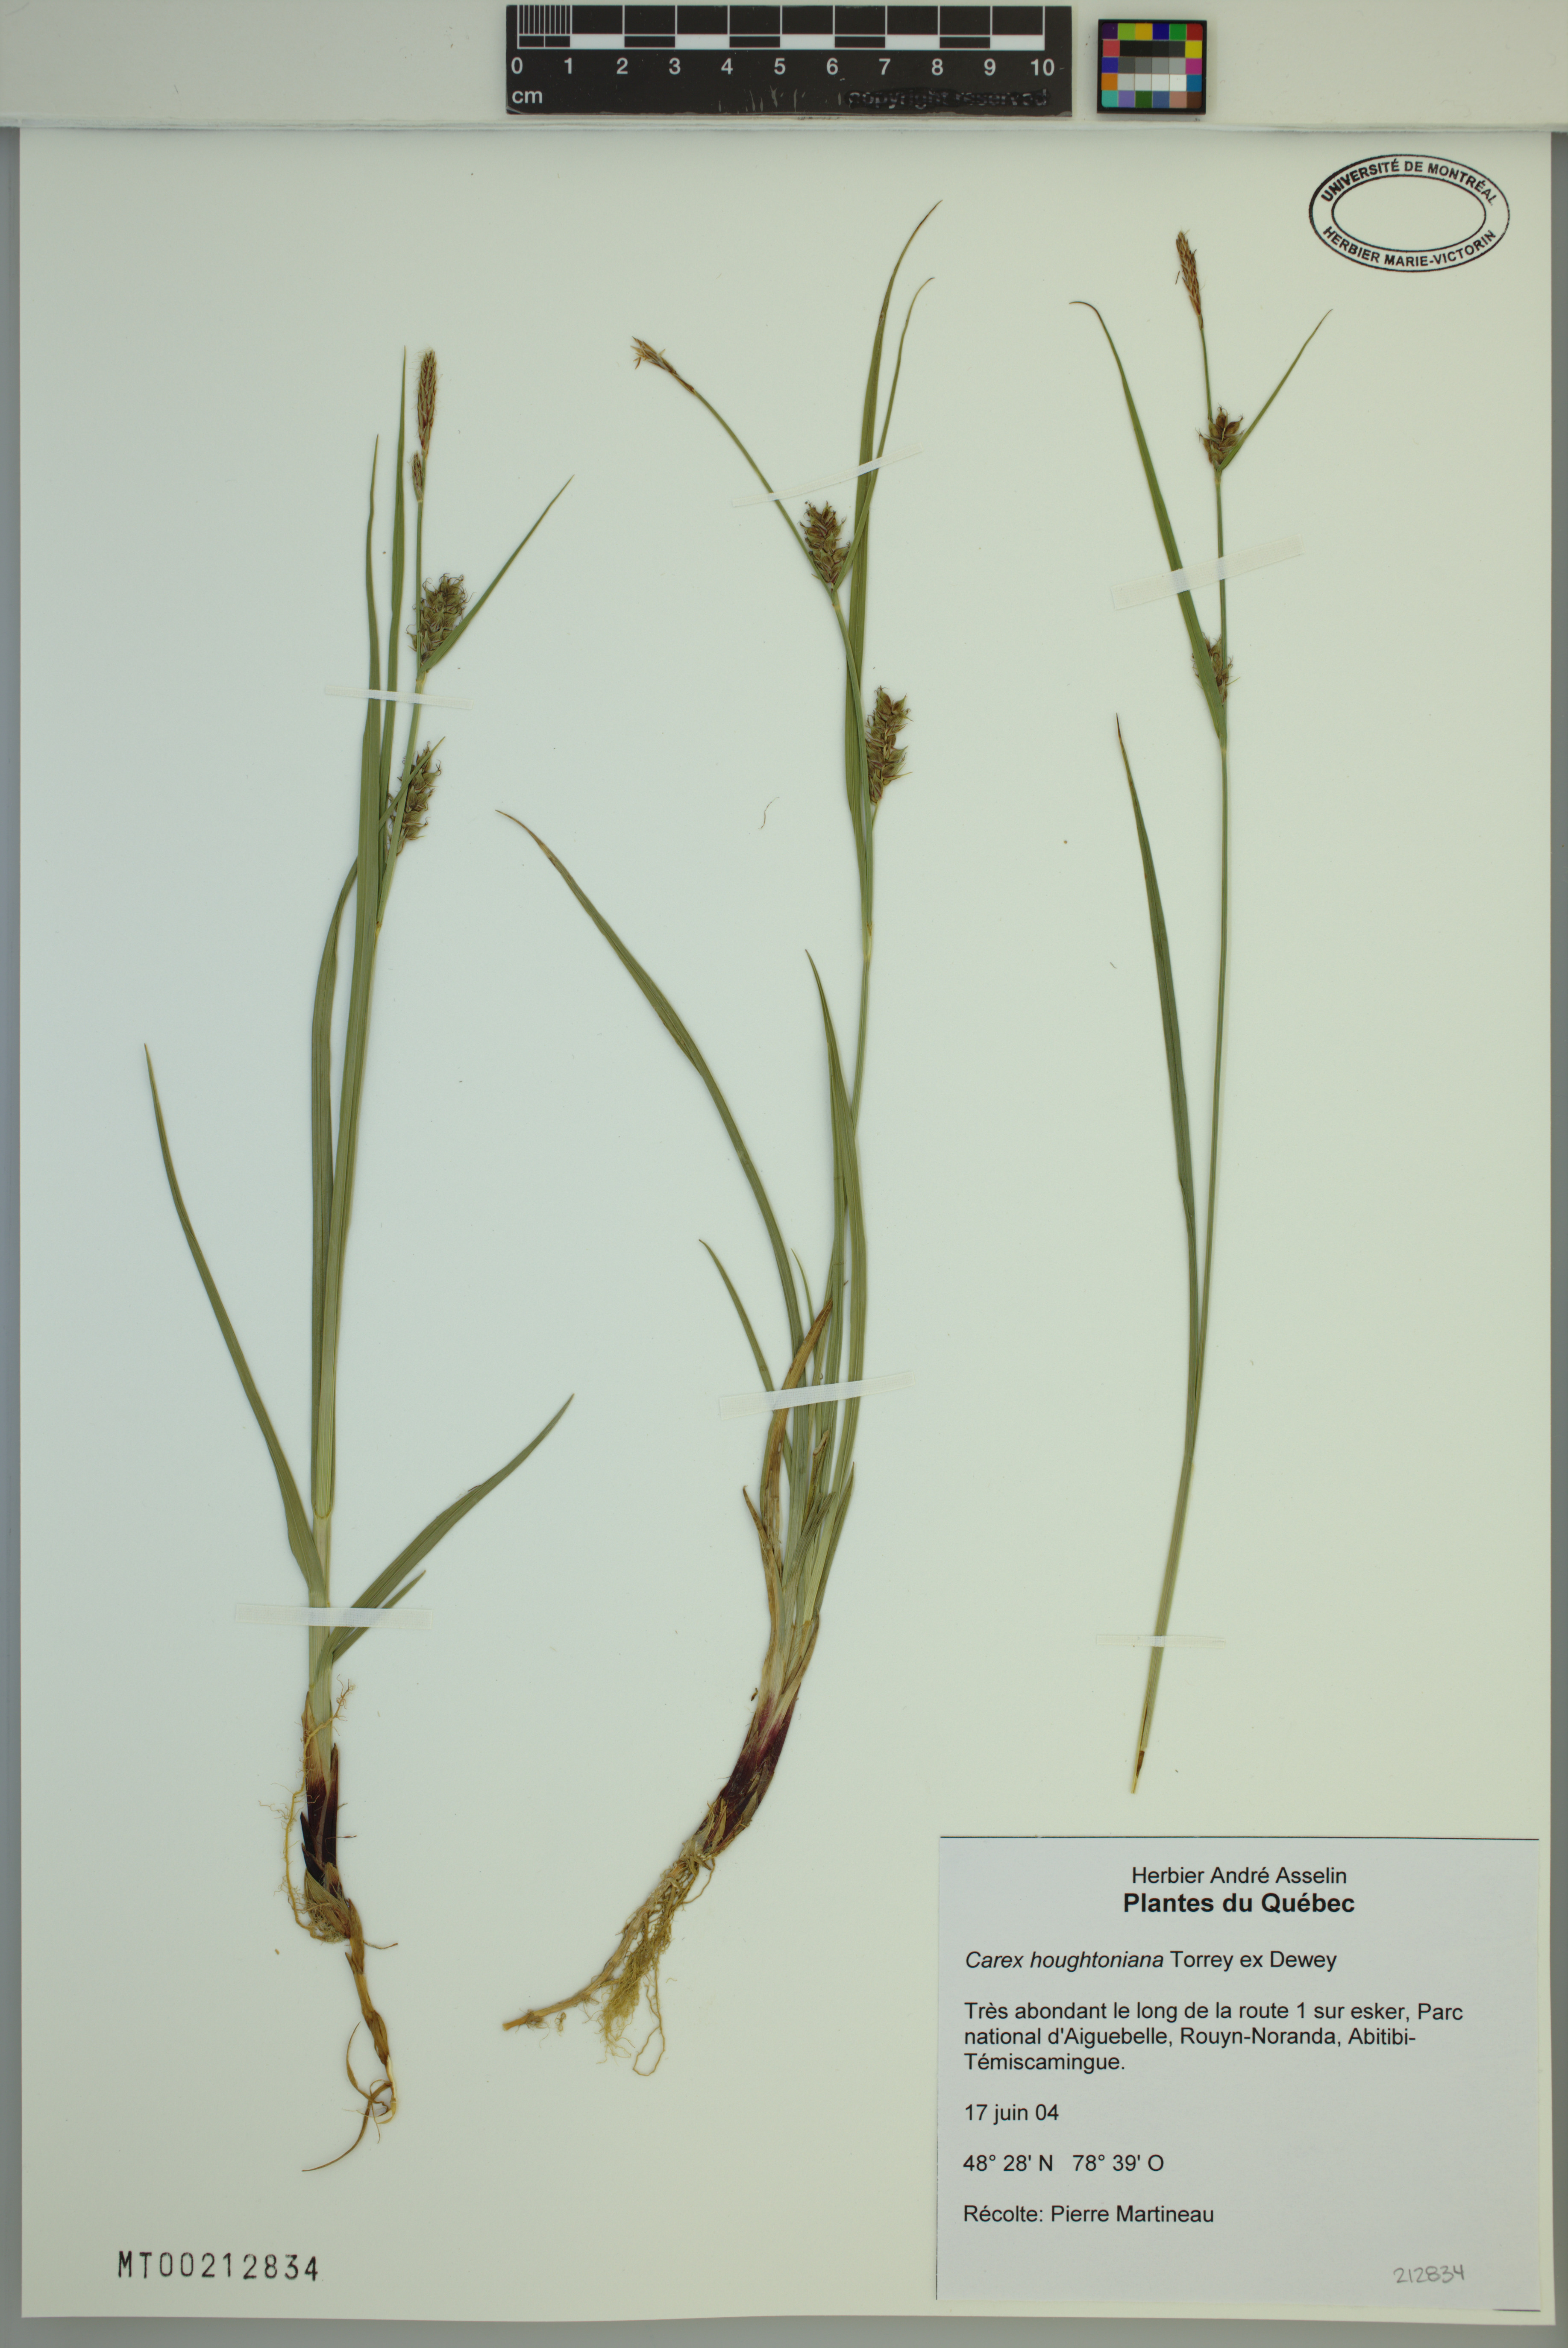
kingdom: Plantae
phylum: Tracheophyta
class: Liliopsida
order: Poales
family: Cyperaceae
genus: Carex
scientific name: Carex houghtoniana
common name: Houghton's sedge
